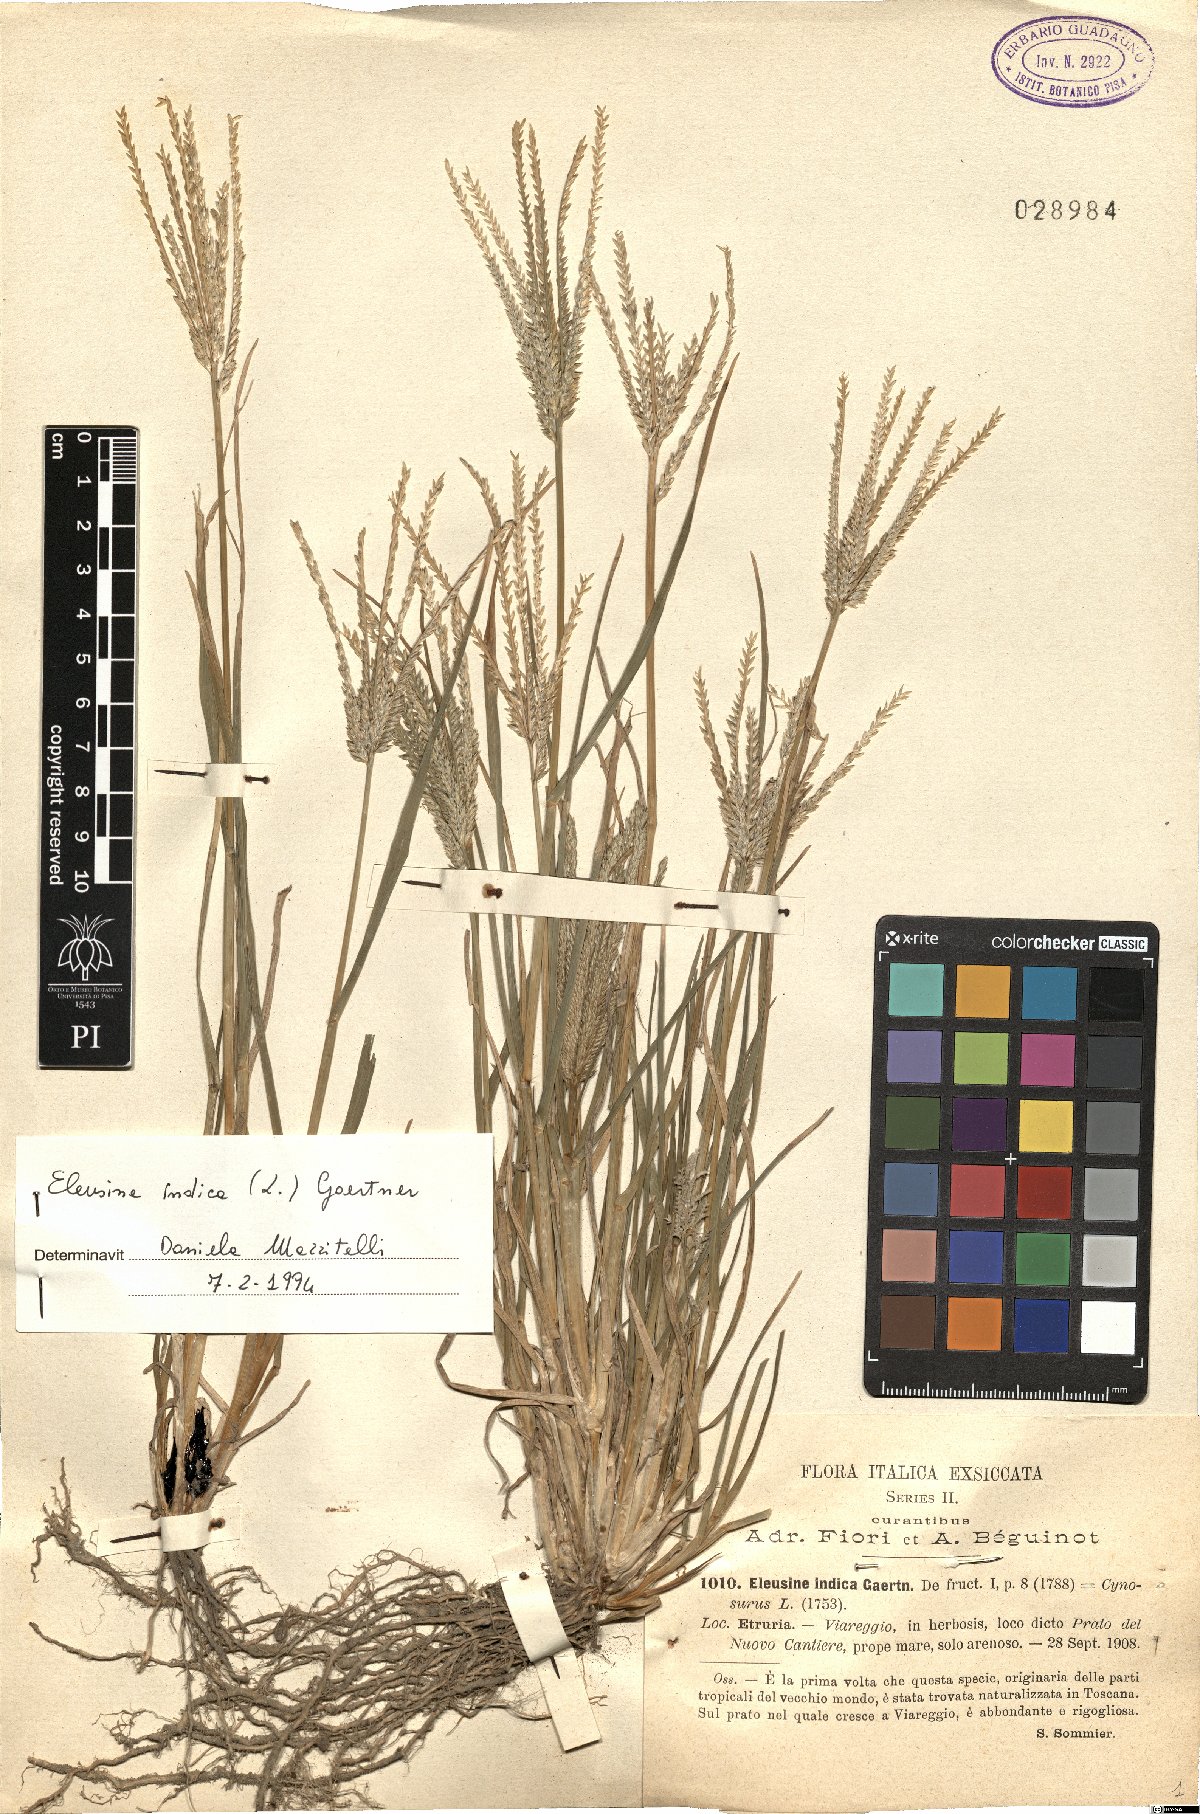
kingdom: Plantae
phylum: Tracheophyta
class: Liliopsida
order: Poales
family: Poaceae
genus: Eleusine
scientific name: Eleusine indica
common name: Yard-grass
